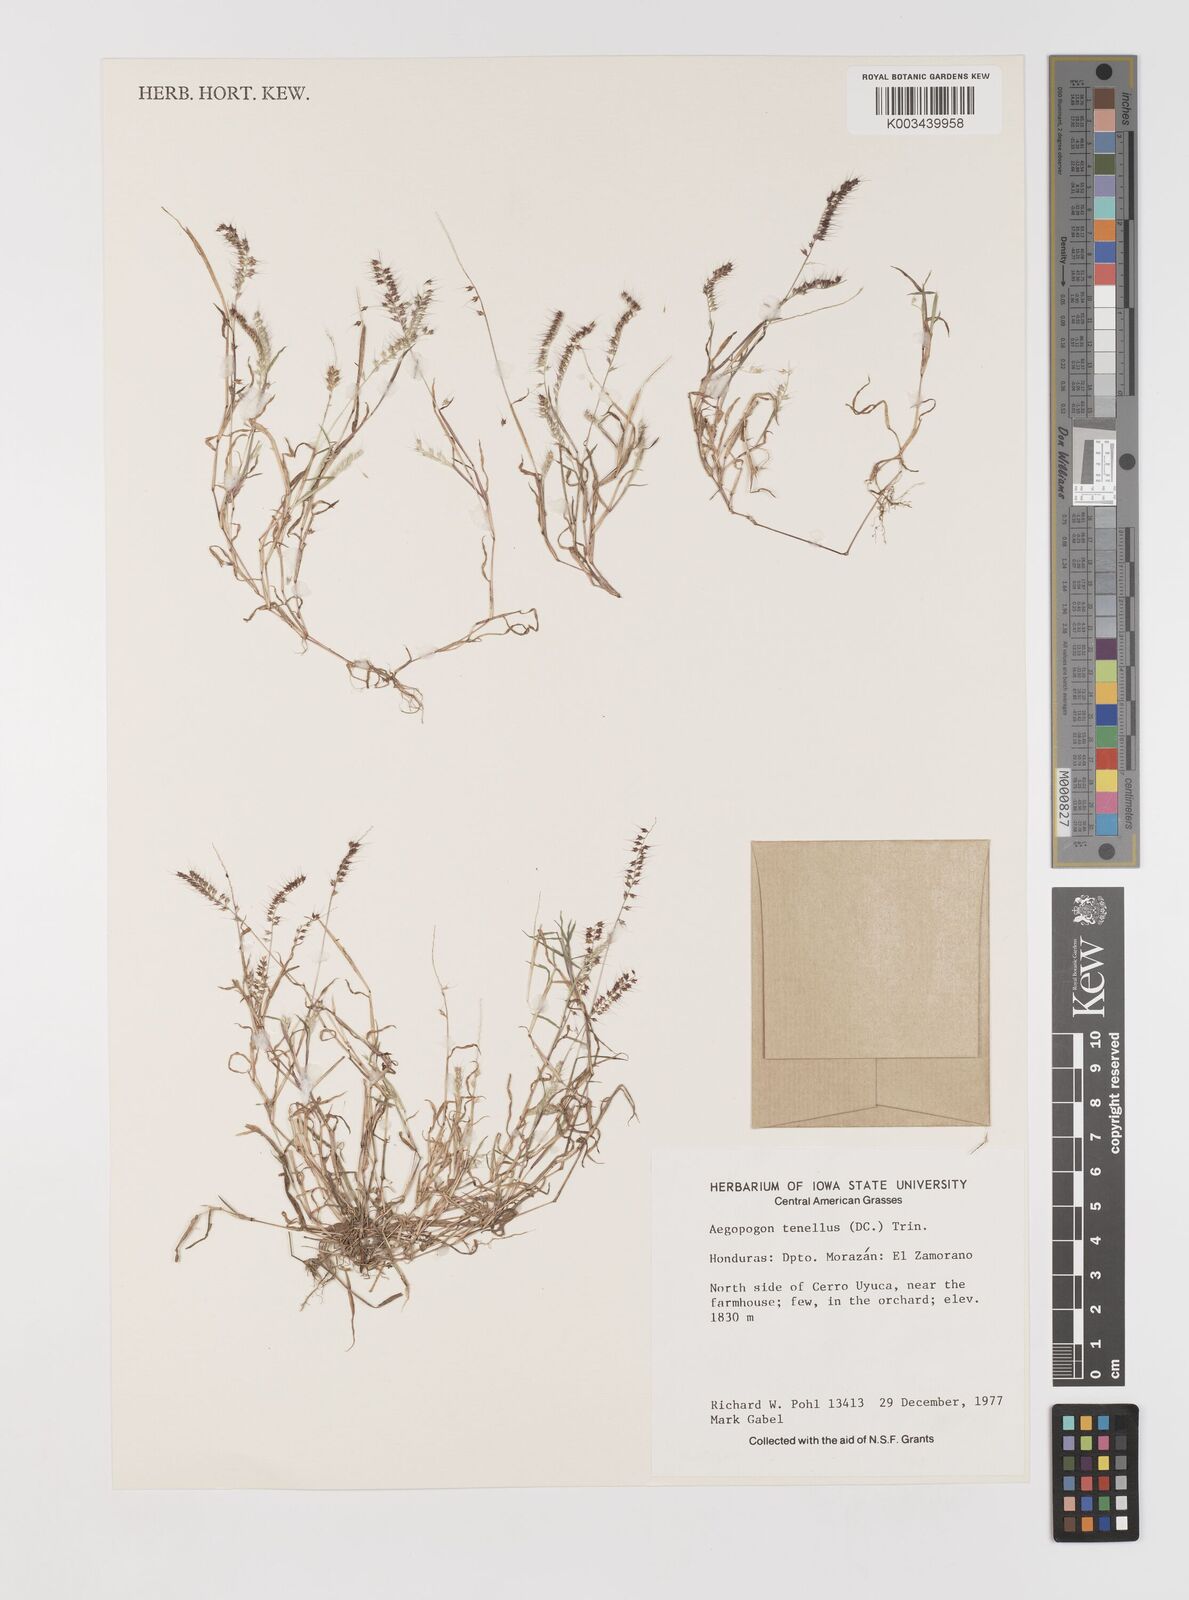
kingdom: Plantae
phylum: Tracheophyta
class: Liliopsida
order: Poales
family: Poaceae
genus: Muhlenbergia
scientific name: Muhlenbergia uniseta
